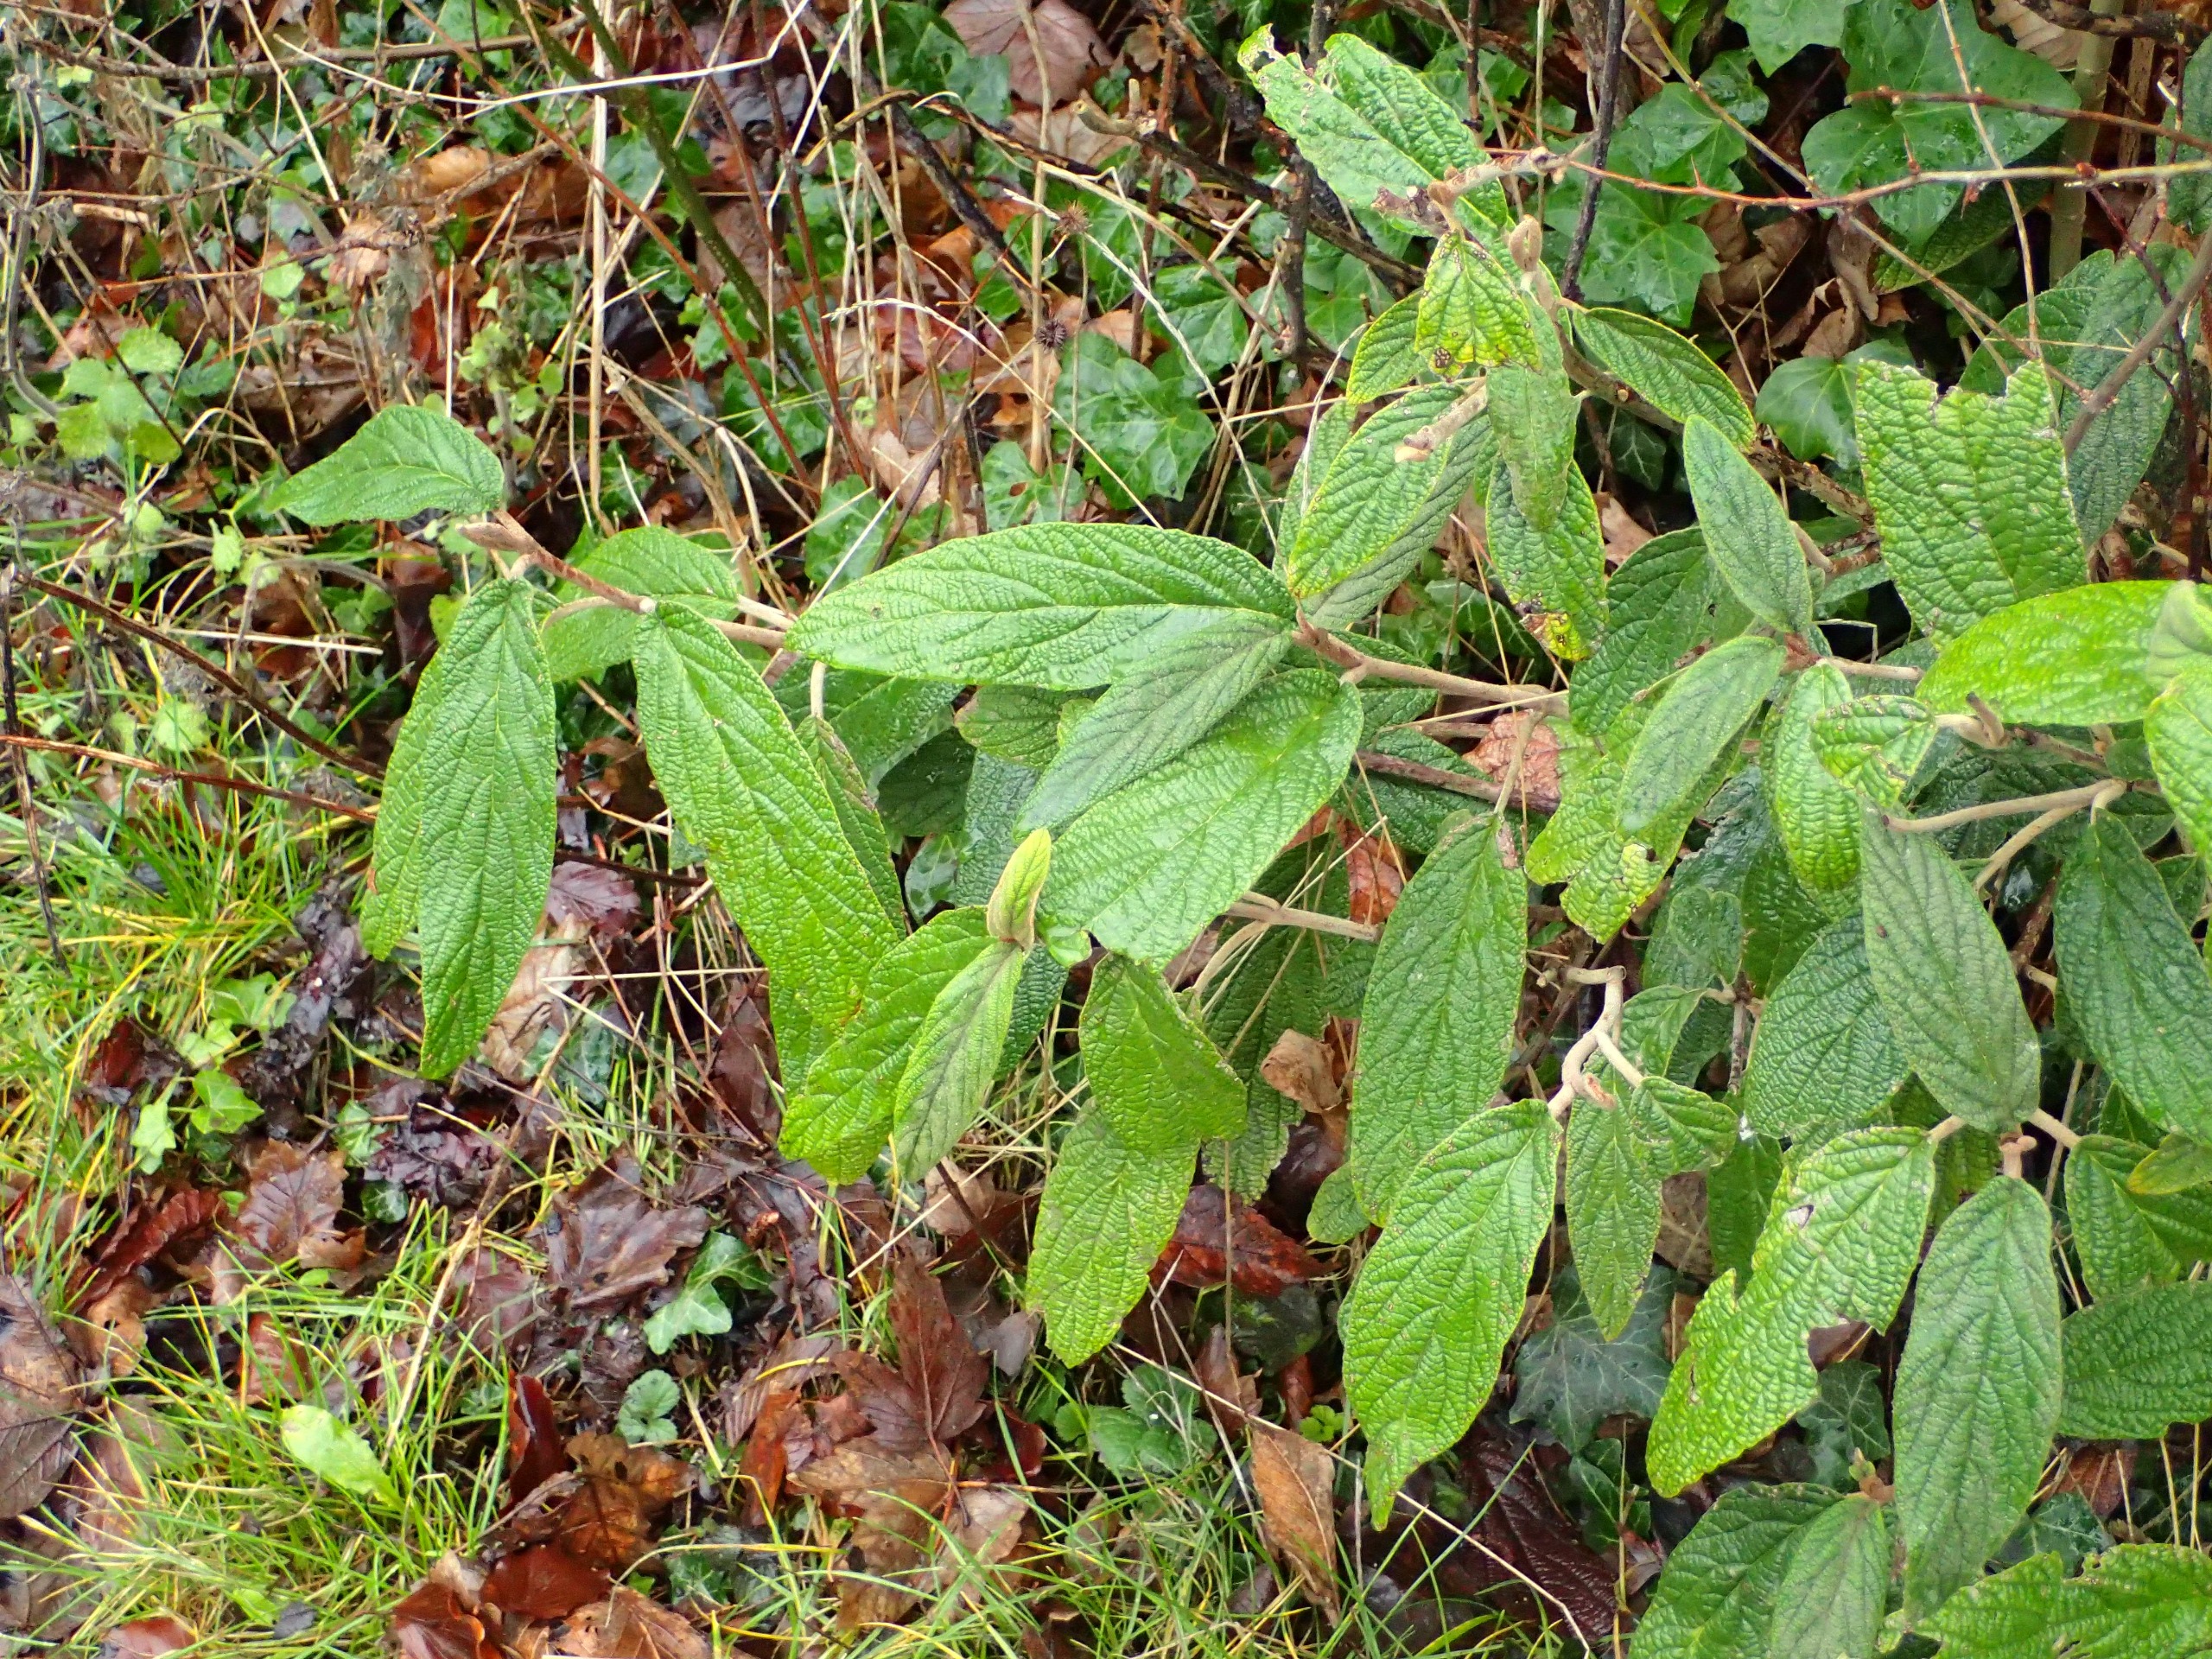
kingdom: Plantae
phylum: Tracheophyta
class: Magnoliopsida
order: Dipsacales
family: Viburnaceae
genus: Viburnum
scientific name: Viburnum rhytidophyllum
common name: Rynkeblad
